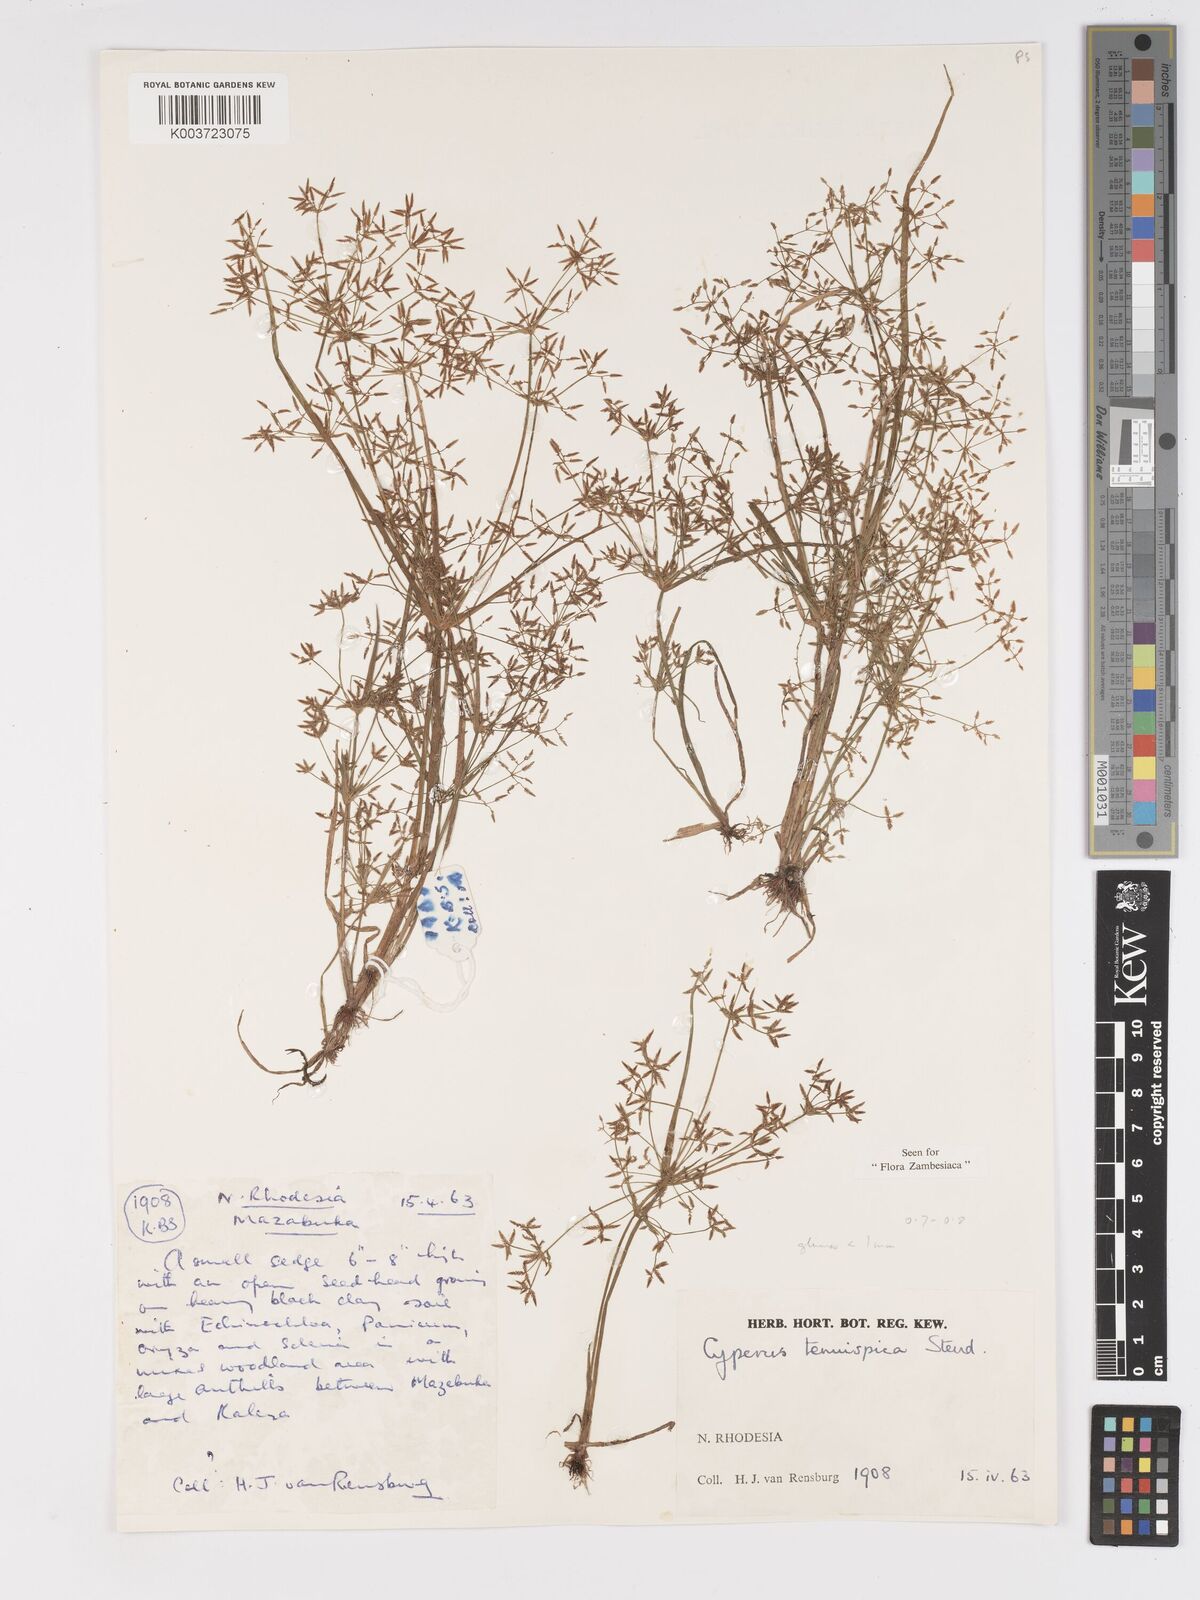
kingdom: Plantae
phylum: Tracheophyta
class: Liliopsida
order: Poales
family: Cyperaceae
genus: Cyperus
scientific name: Cyperus tenuispica
